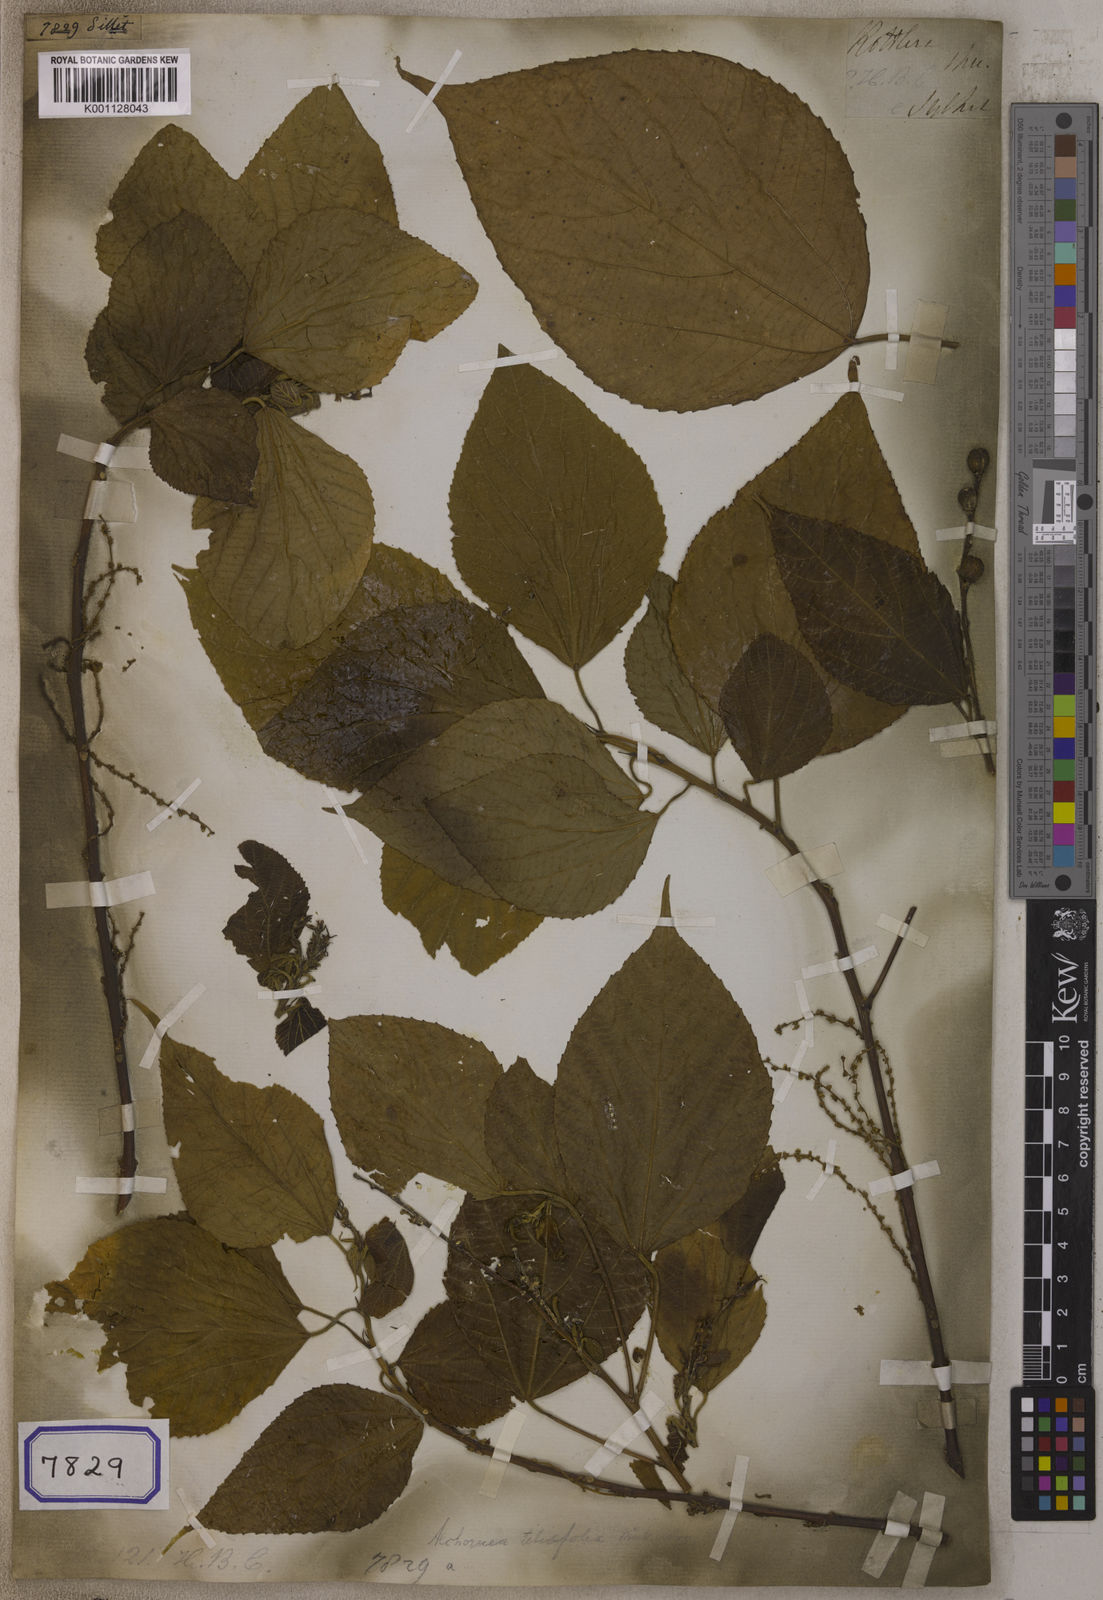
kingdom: Plantae
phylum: Tracheophyta
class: Magnoliopsida
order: Malpighiales
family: Euphorbiaceae
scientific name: Euphorbiaceae
